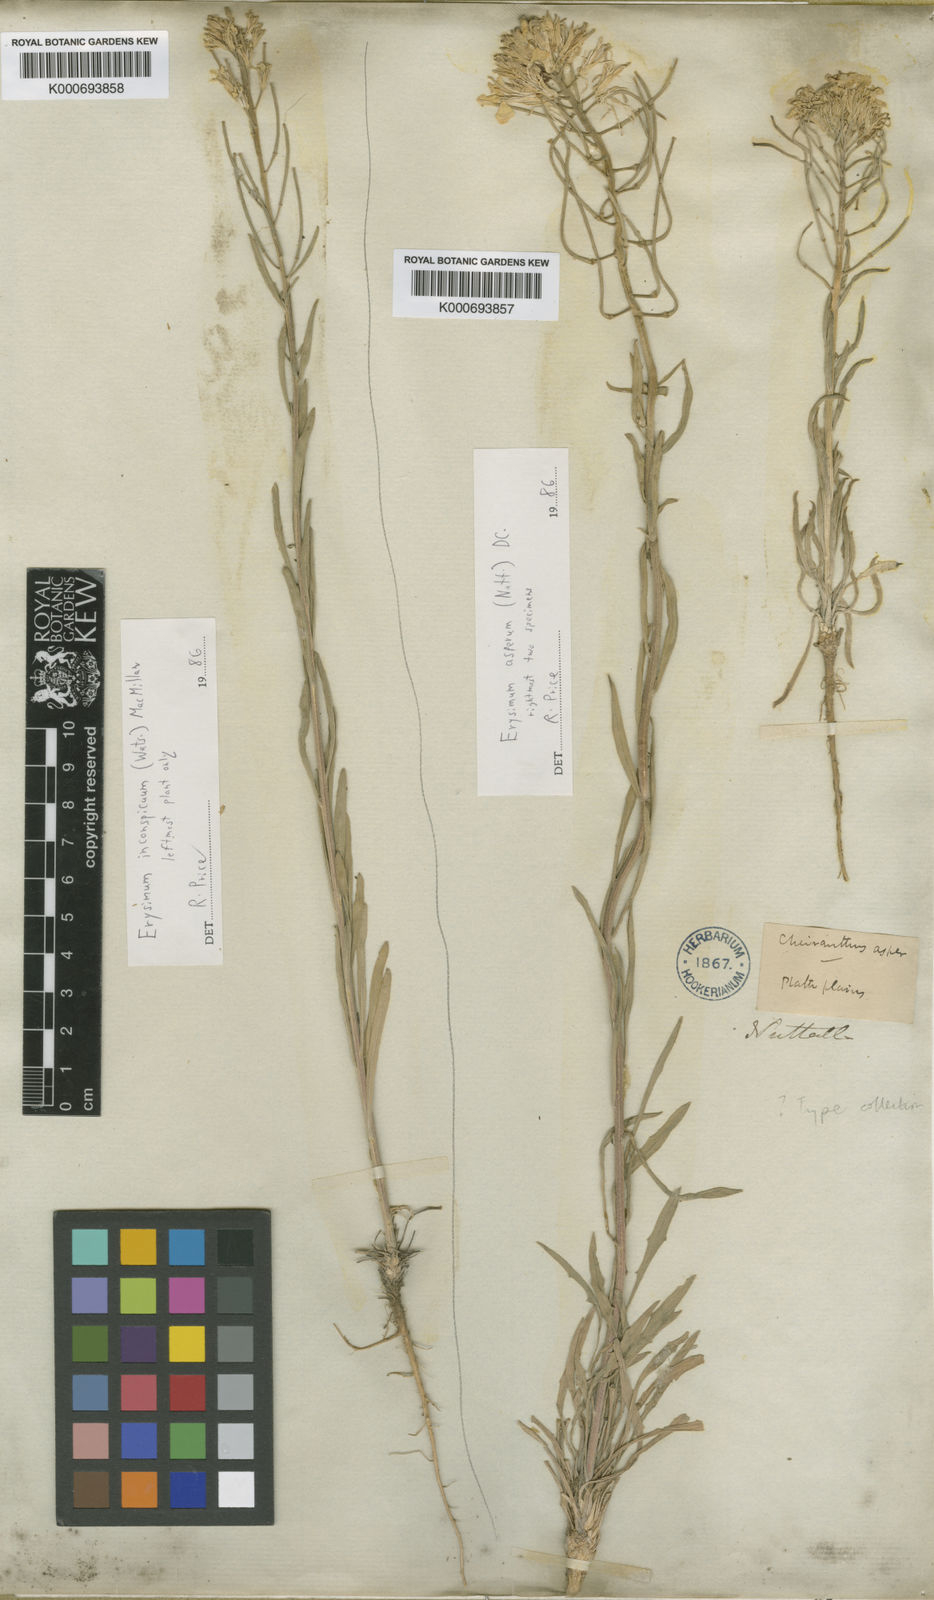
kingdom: Plantae
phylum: Tracheophyta
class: Magnoliopsida
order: Brassicales
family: Brassicaceae
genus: Erysimum
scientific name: Erysimum asperum
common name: Western wallflower
